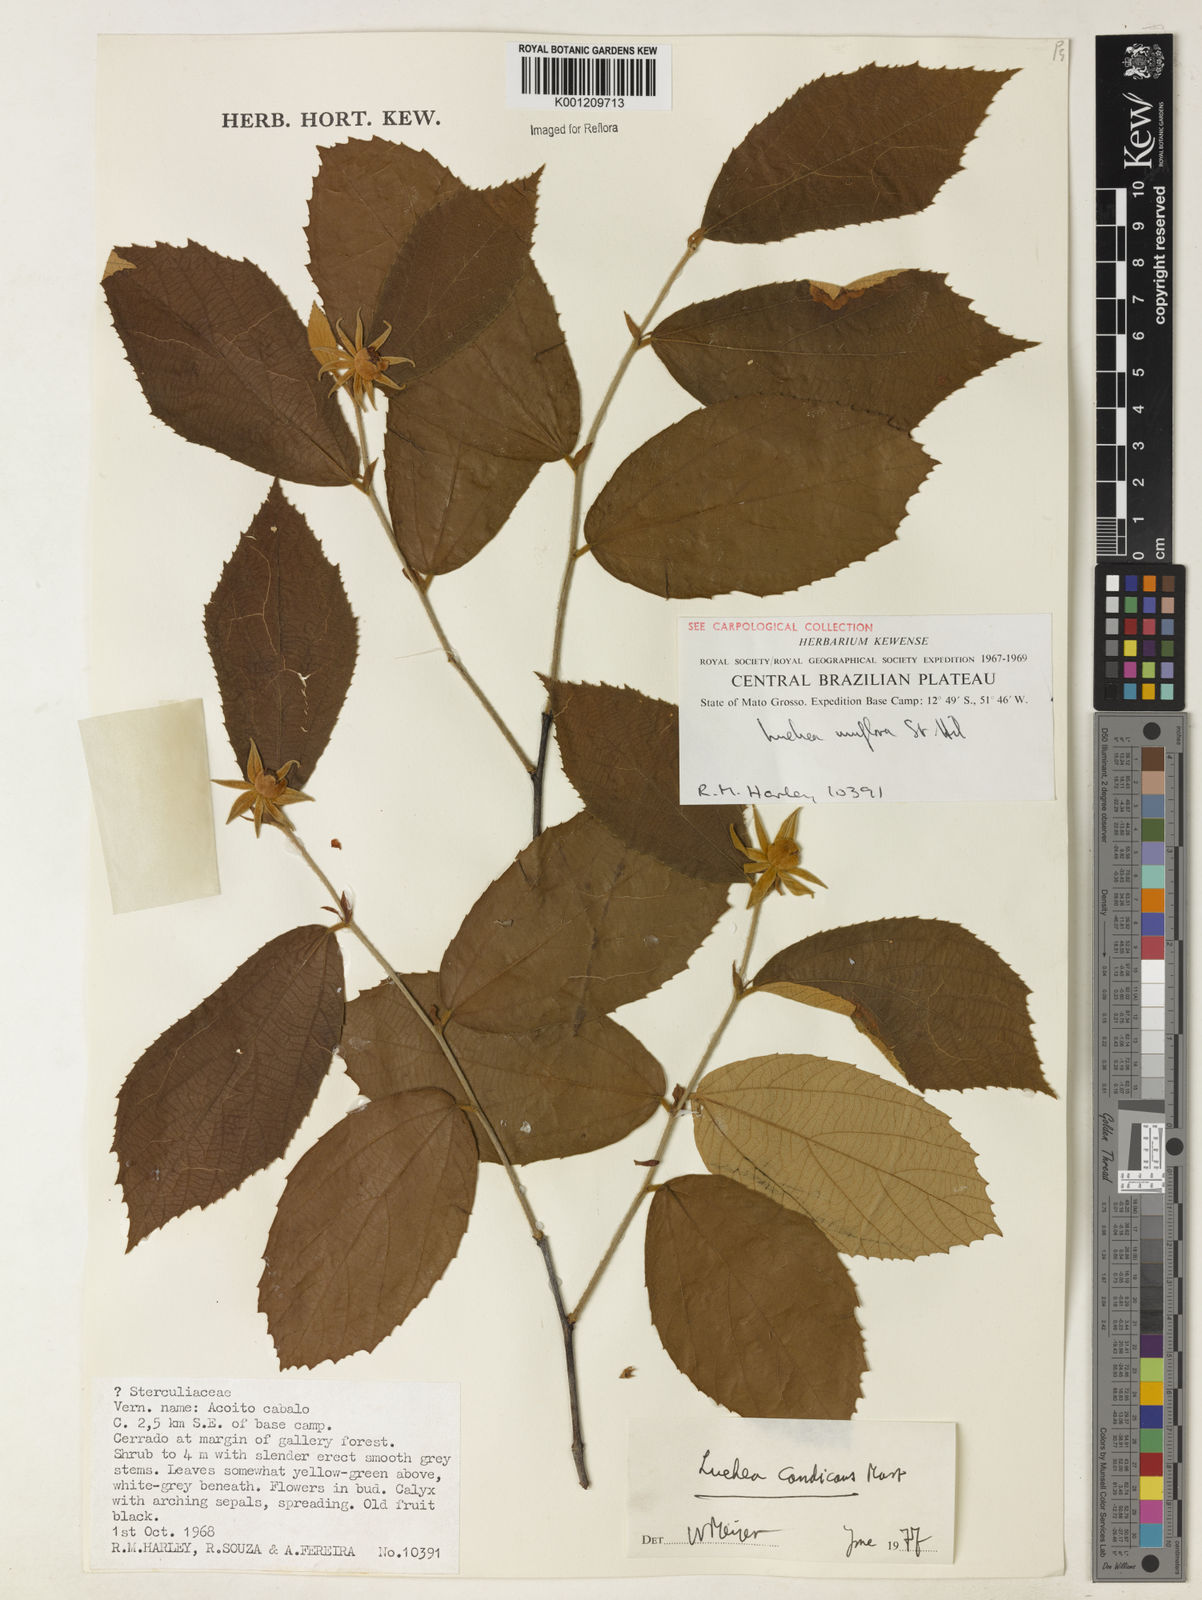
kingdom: Plantae
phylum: Tracheophyta
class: Magnoliopsida
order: Malvales
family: Malvaceae
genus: Luehea
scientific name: Luehea candicans
